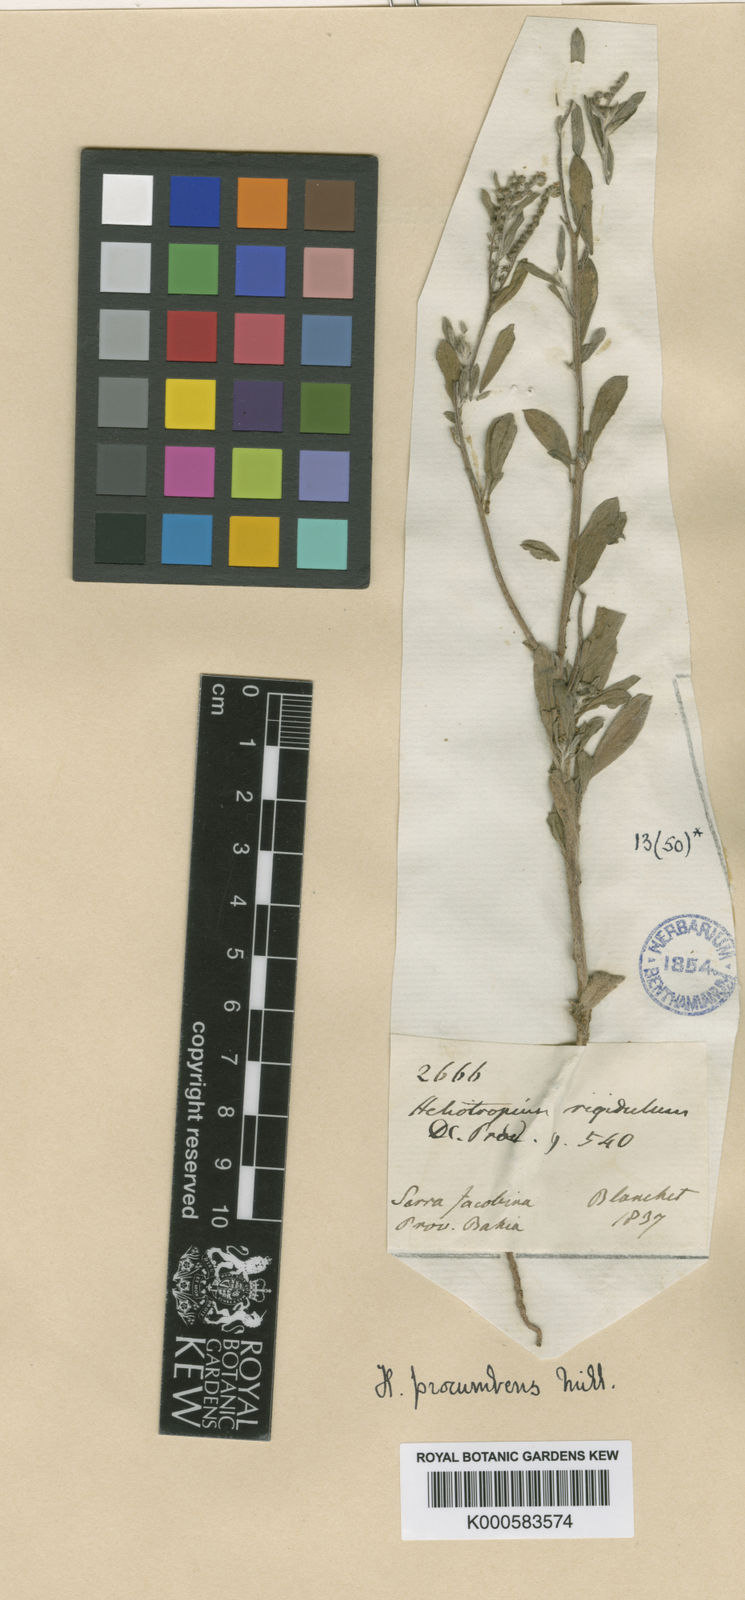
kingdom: Plantae
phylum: Tracheophyta
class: Magnoliopsida
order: Boraginales
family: Heliotropiaceae
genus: Euploca
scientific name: Euploca procumbens
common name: Fourspike heliotrope
